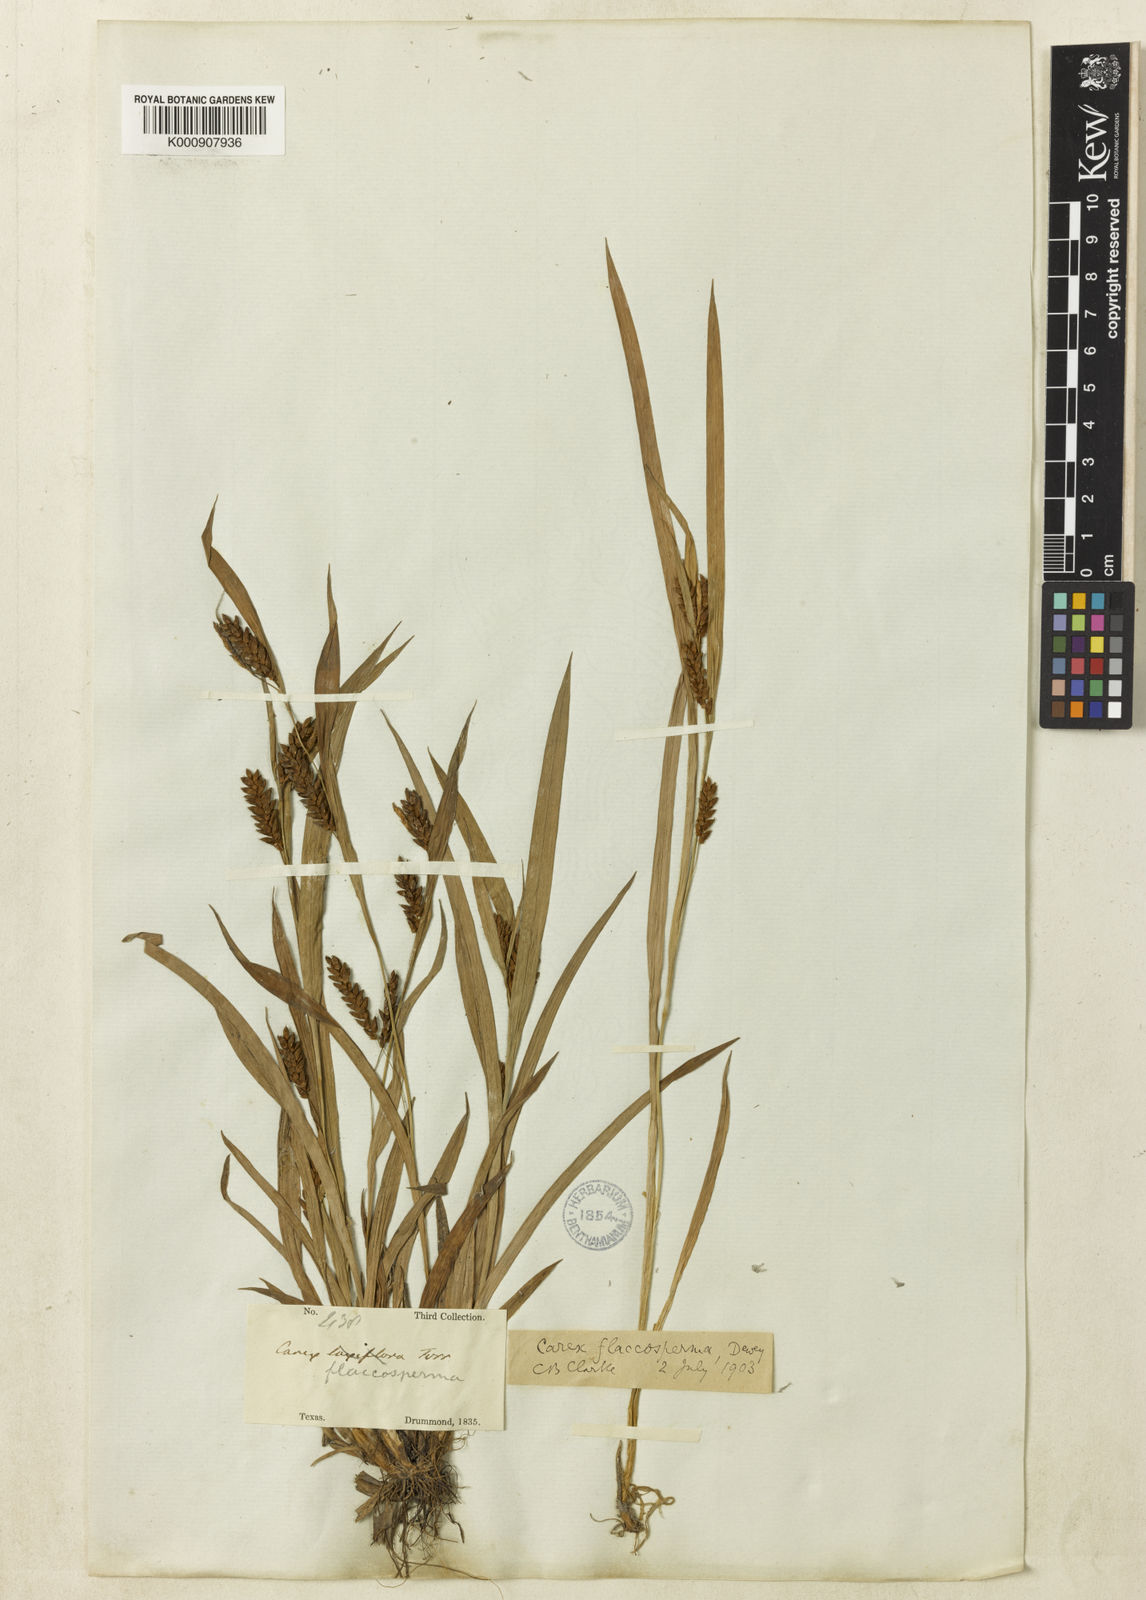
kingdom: Plantae
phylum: Tracheophyta
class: Liliopsida
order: Poales
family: Cyperaceae
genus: Carex
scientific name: Carex flaccosperma
